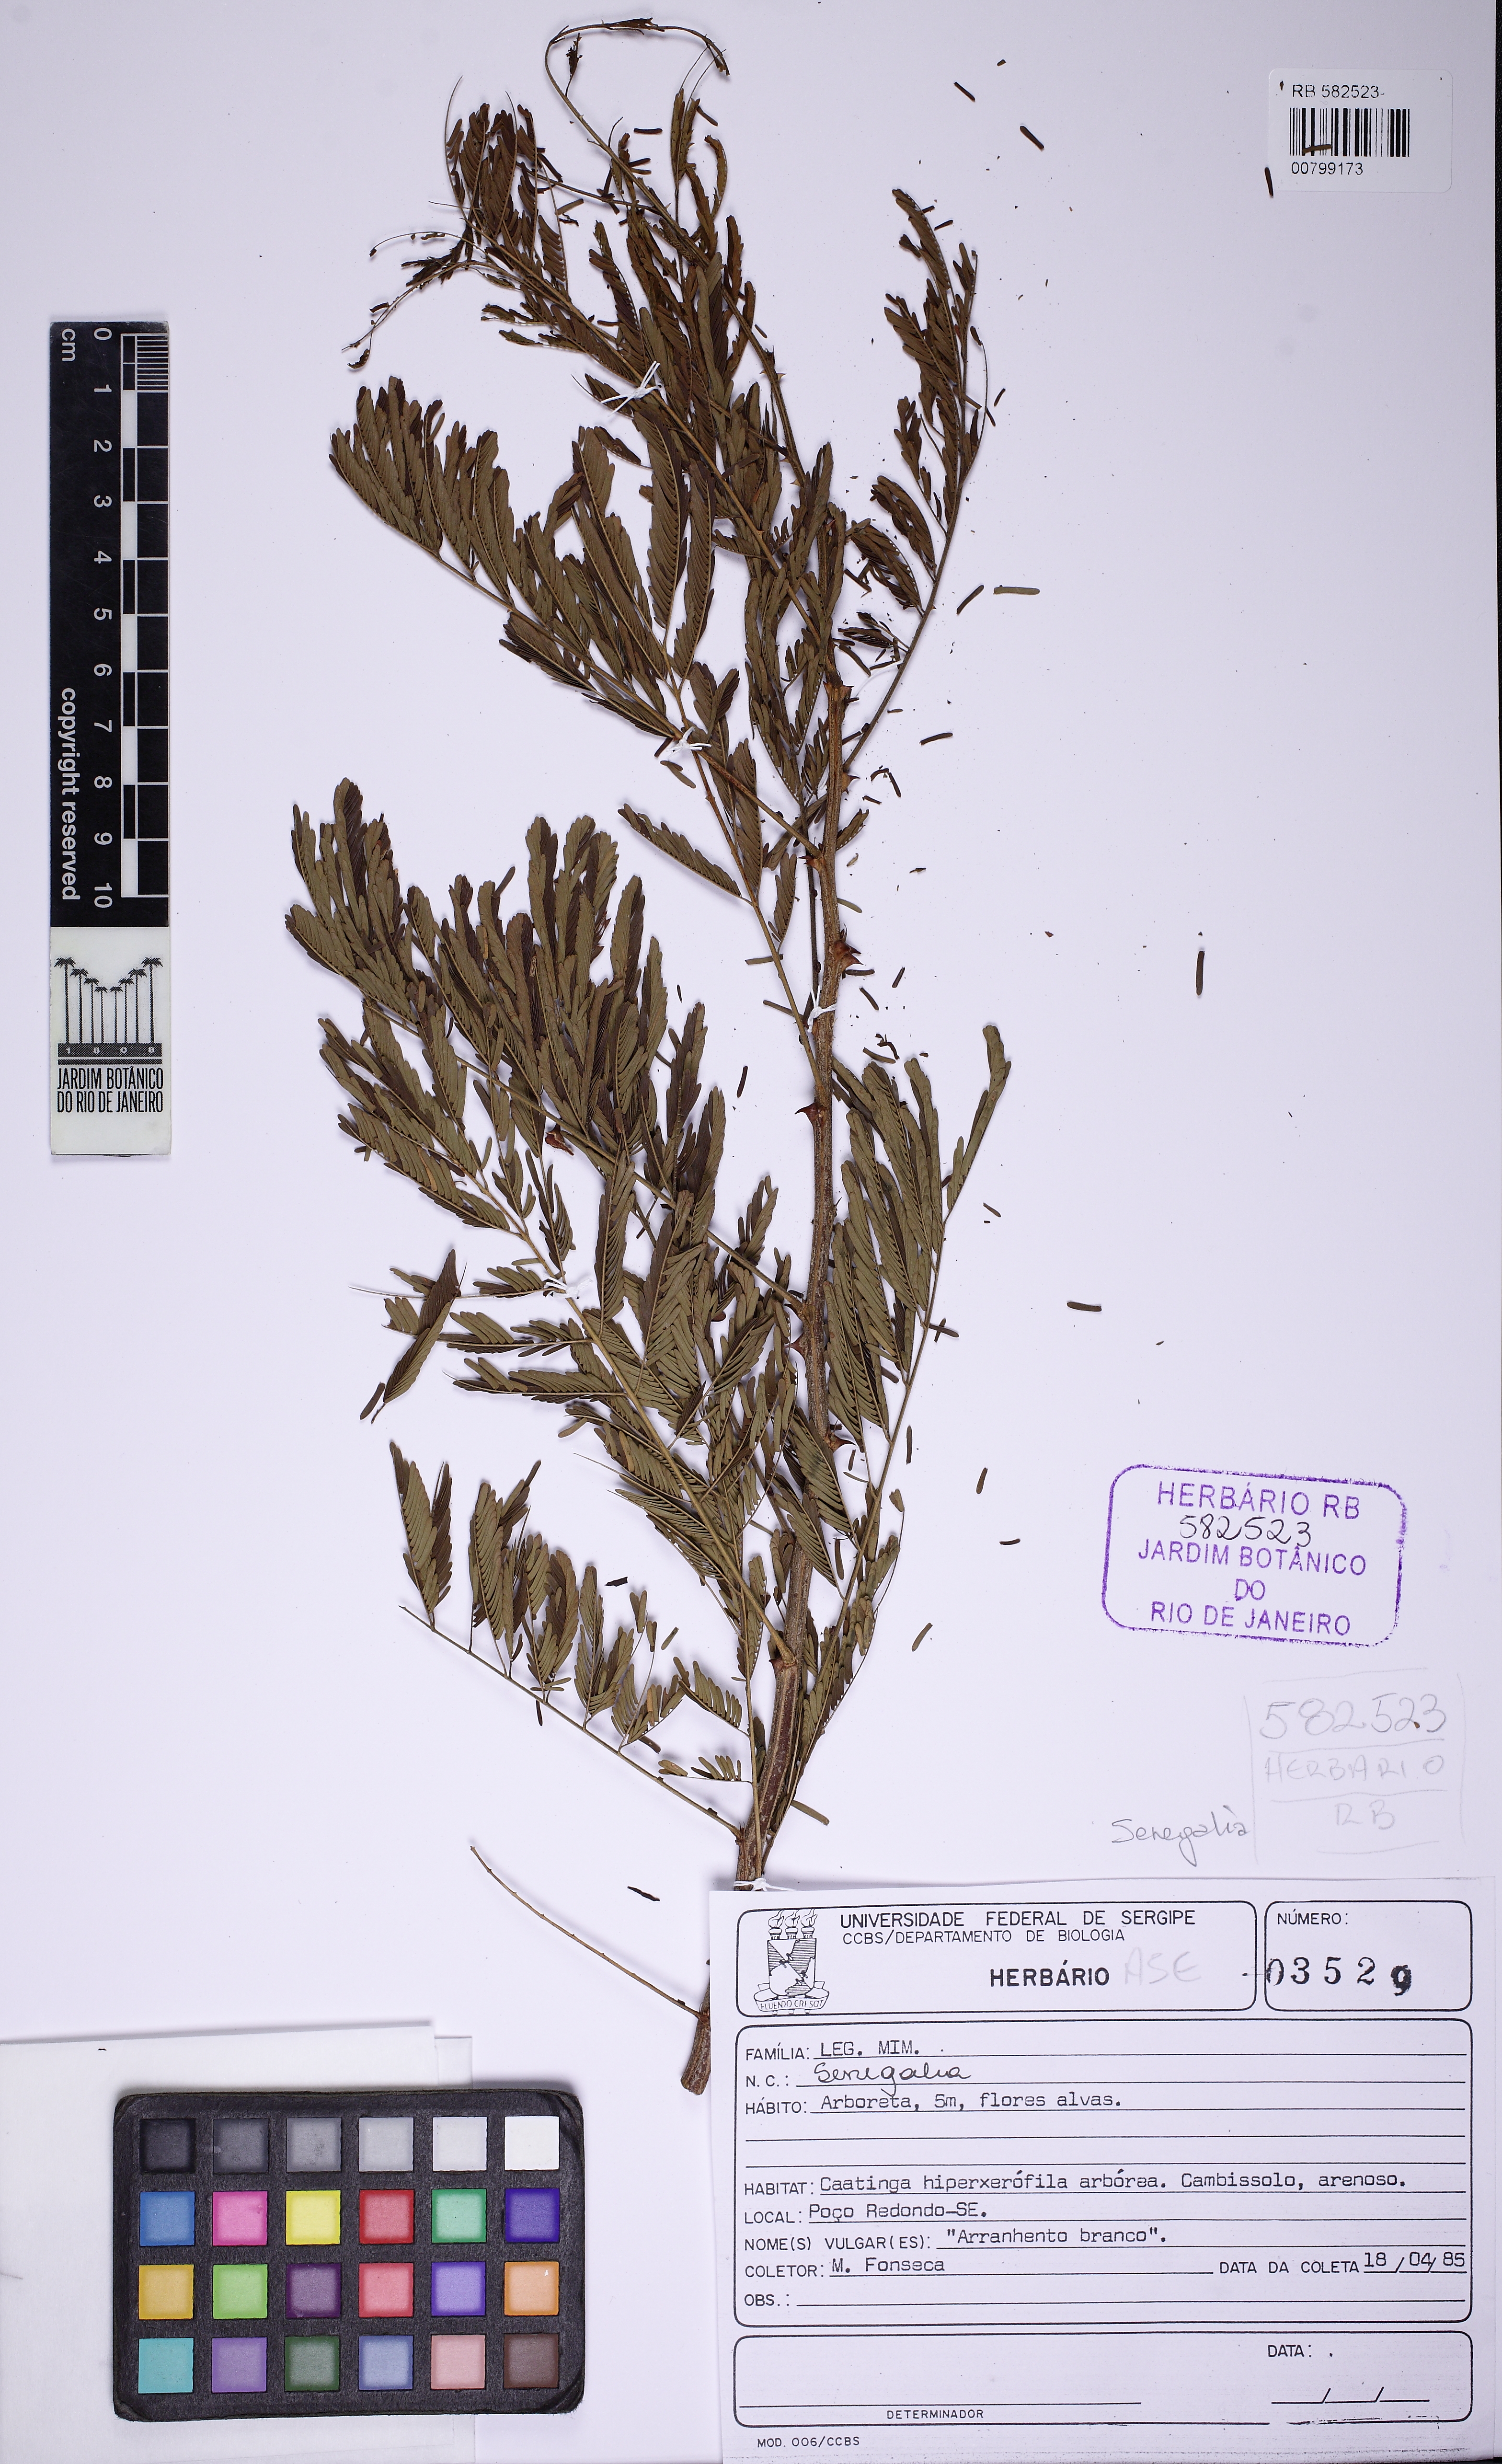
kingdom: Plantae
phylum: Tracheophyta
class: Magnoliopsida
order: Fabales
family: Fabaceae
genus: Senegalia
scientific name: Senegalia tubulifera
